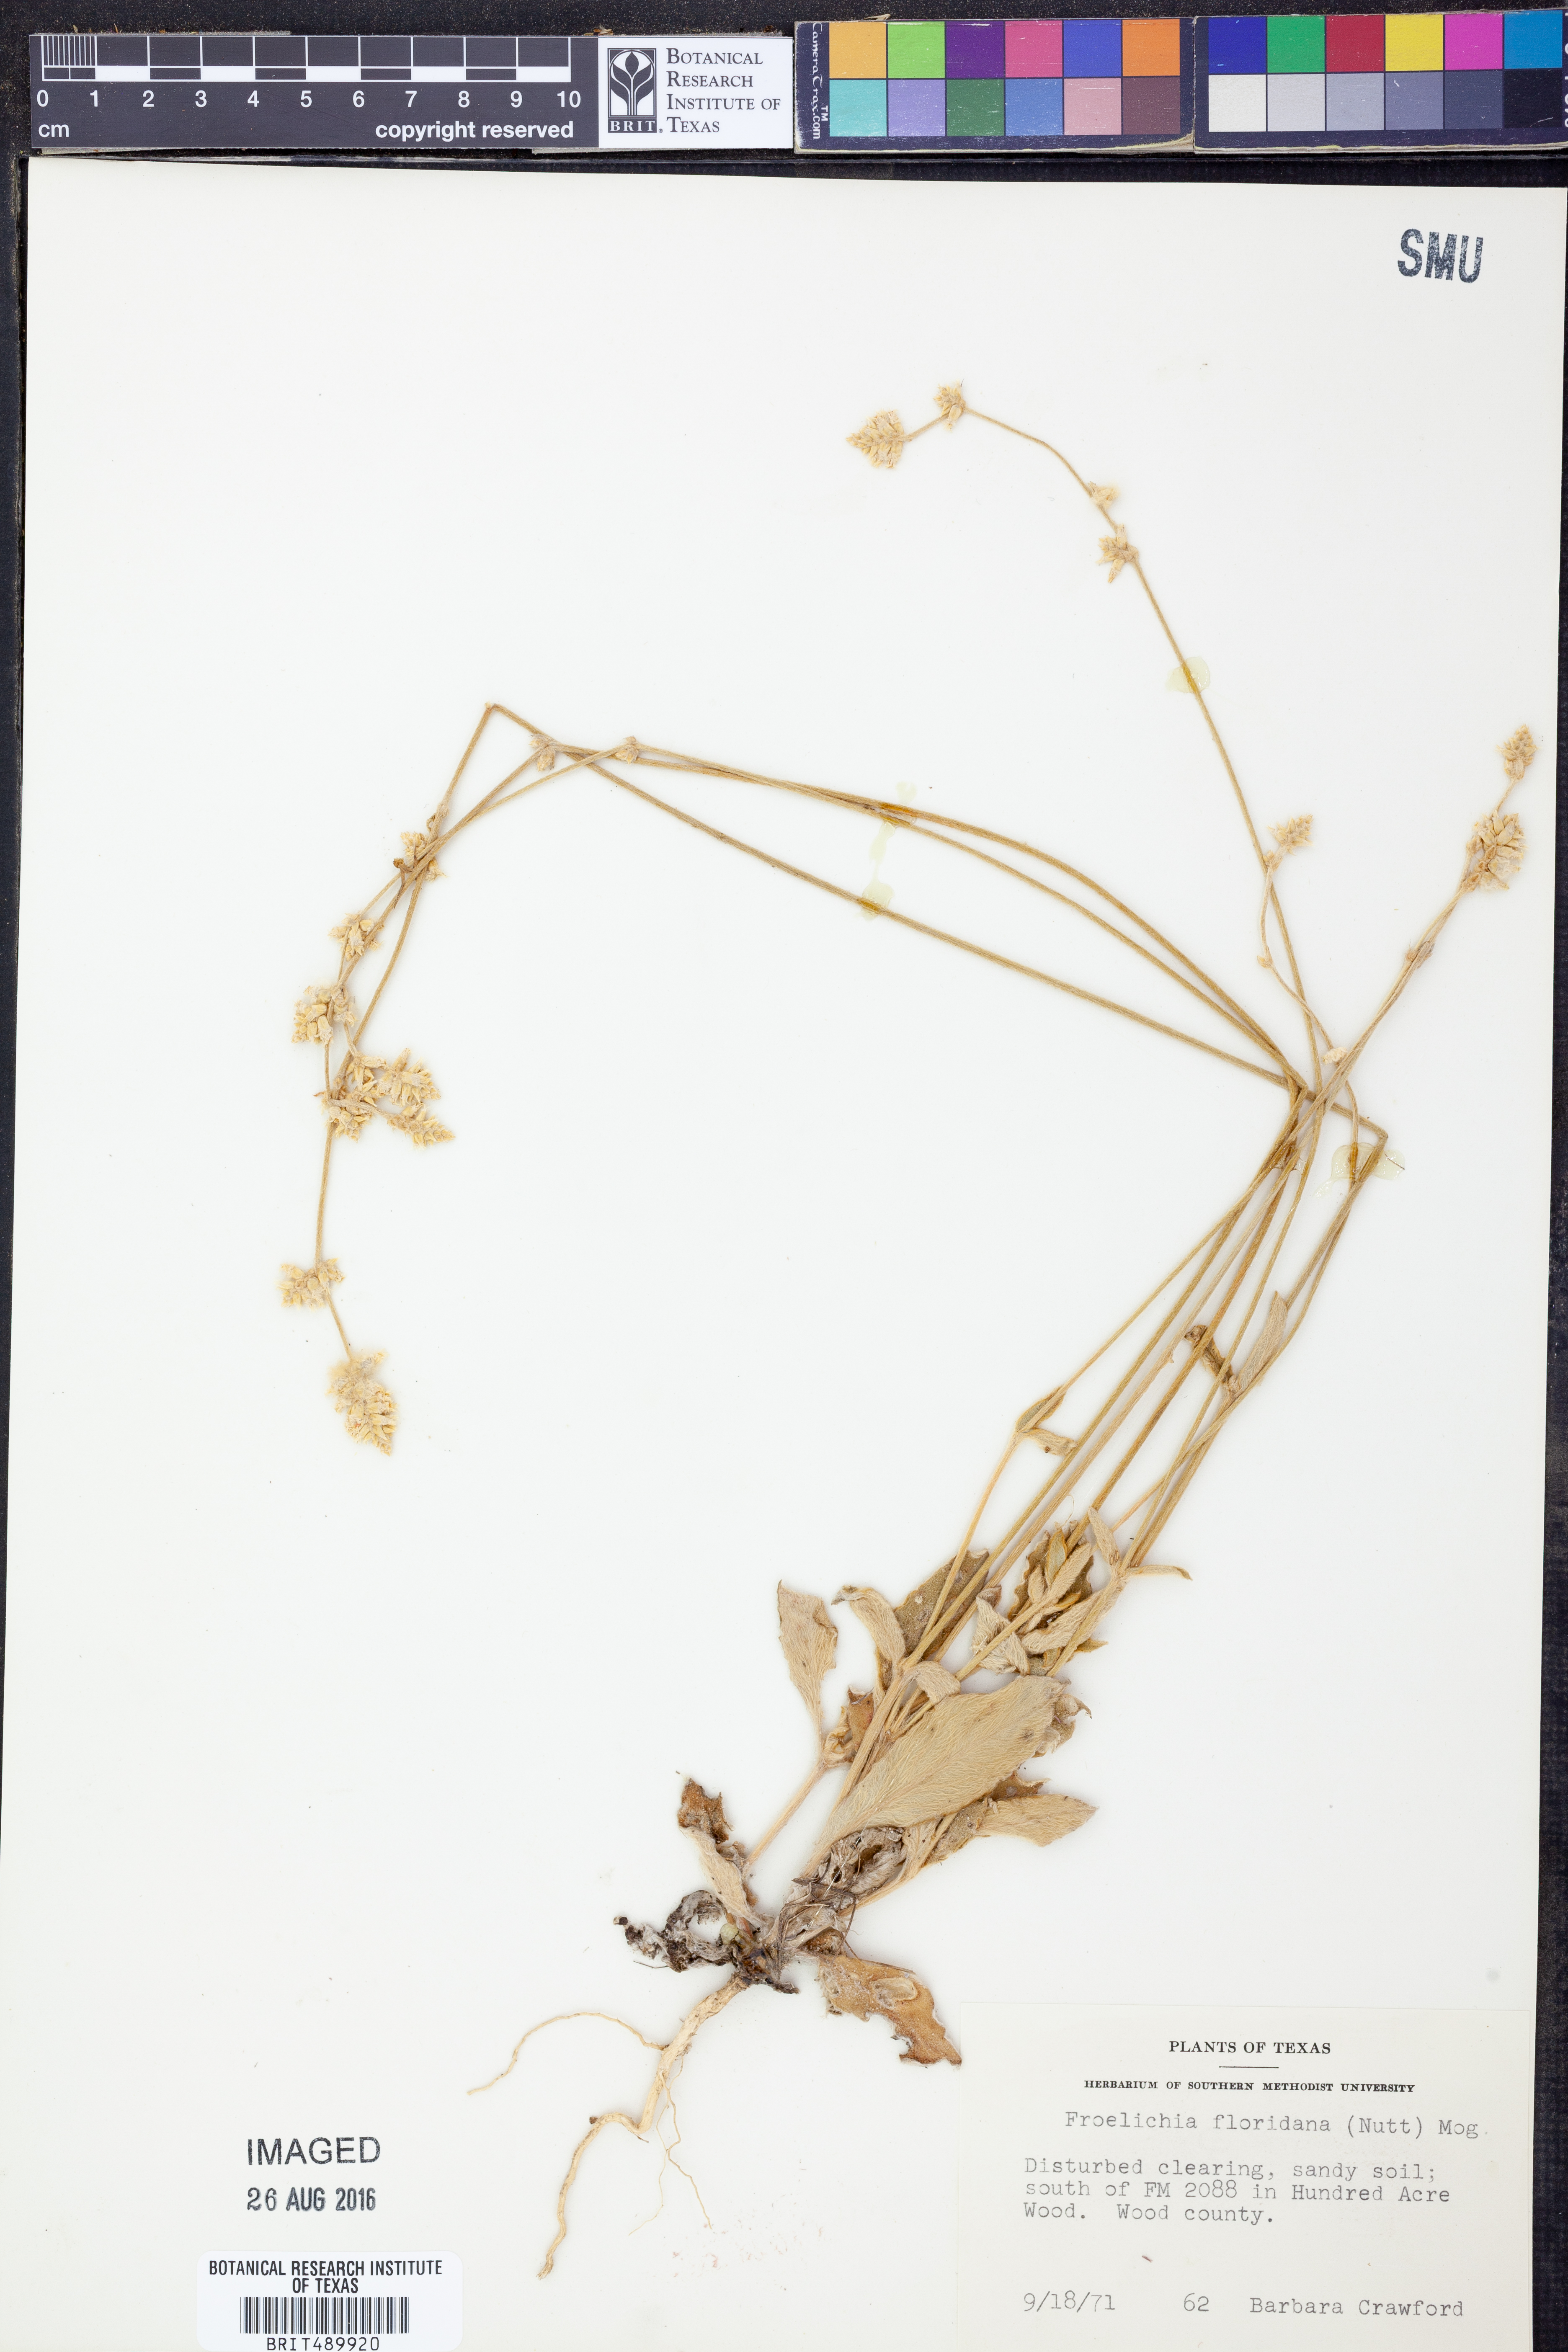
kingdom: Plantae
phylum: Tracheophyta
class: Magnoliopsida
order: Caryophyllales
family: Amaranthaceae
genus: Froelichia
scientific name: Froelichia floridana
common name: Florida snake-cotton
